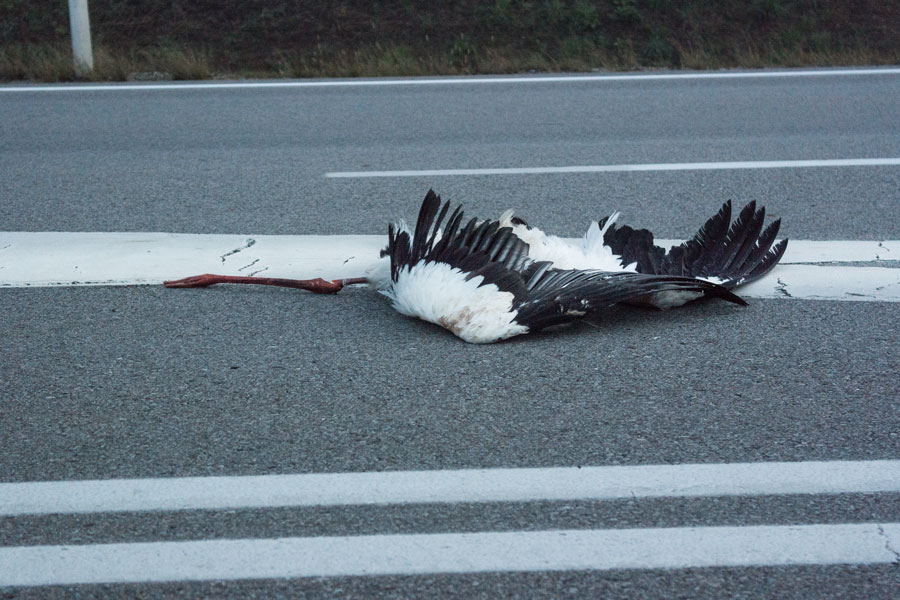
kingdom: Animalia
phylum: Chordata
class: Aves
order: Ciconiiformes
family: Ciconiidae
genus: Ciconia
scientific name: Ciconia ciconia
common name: White stork
